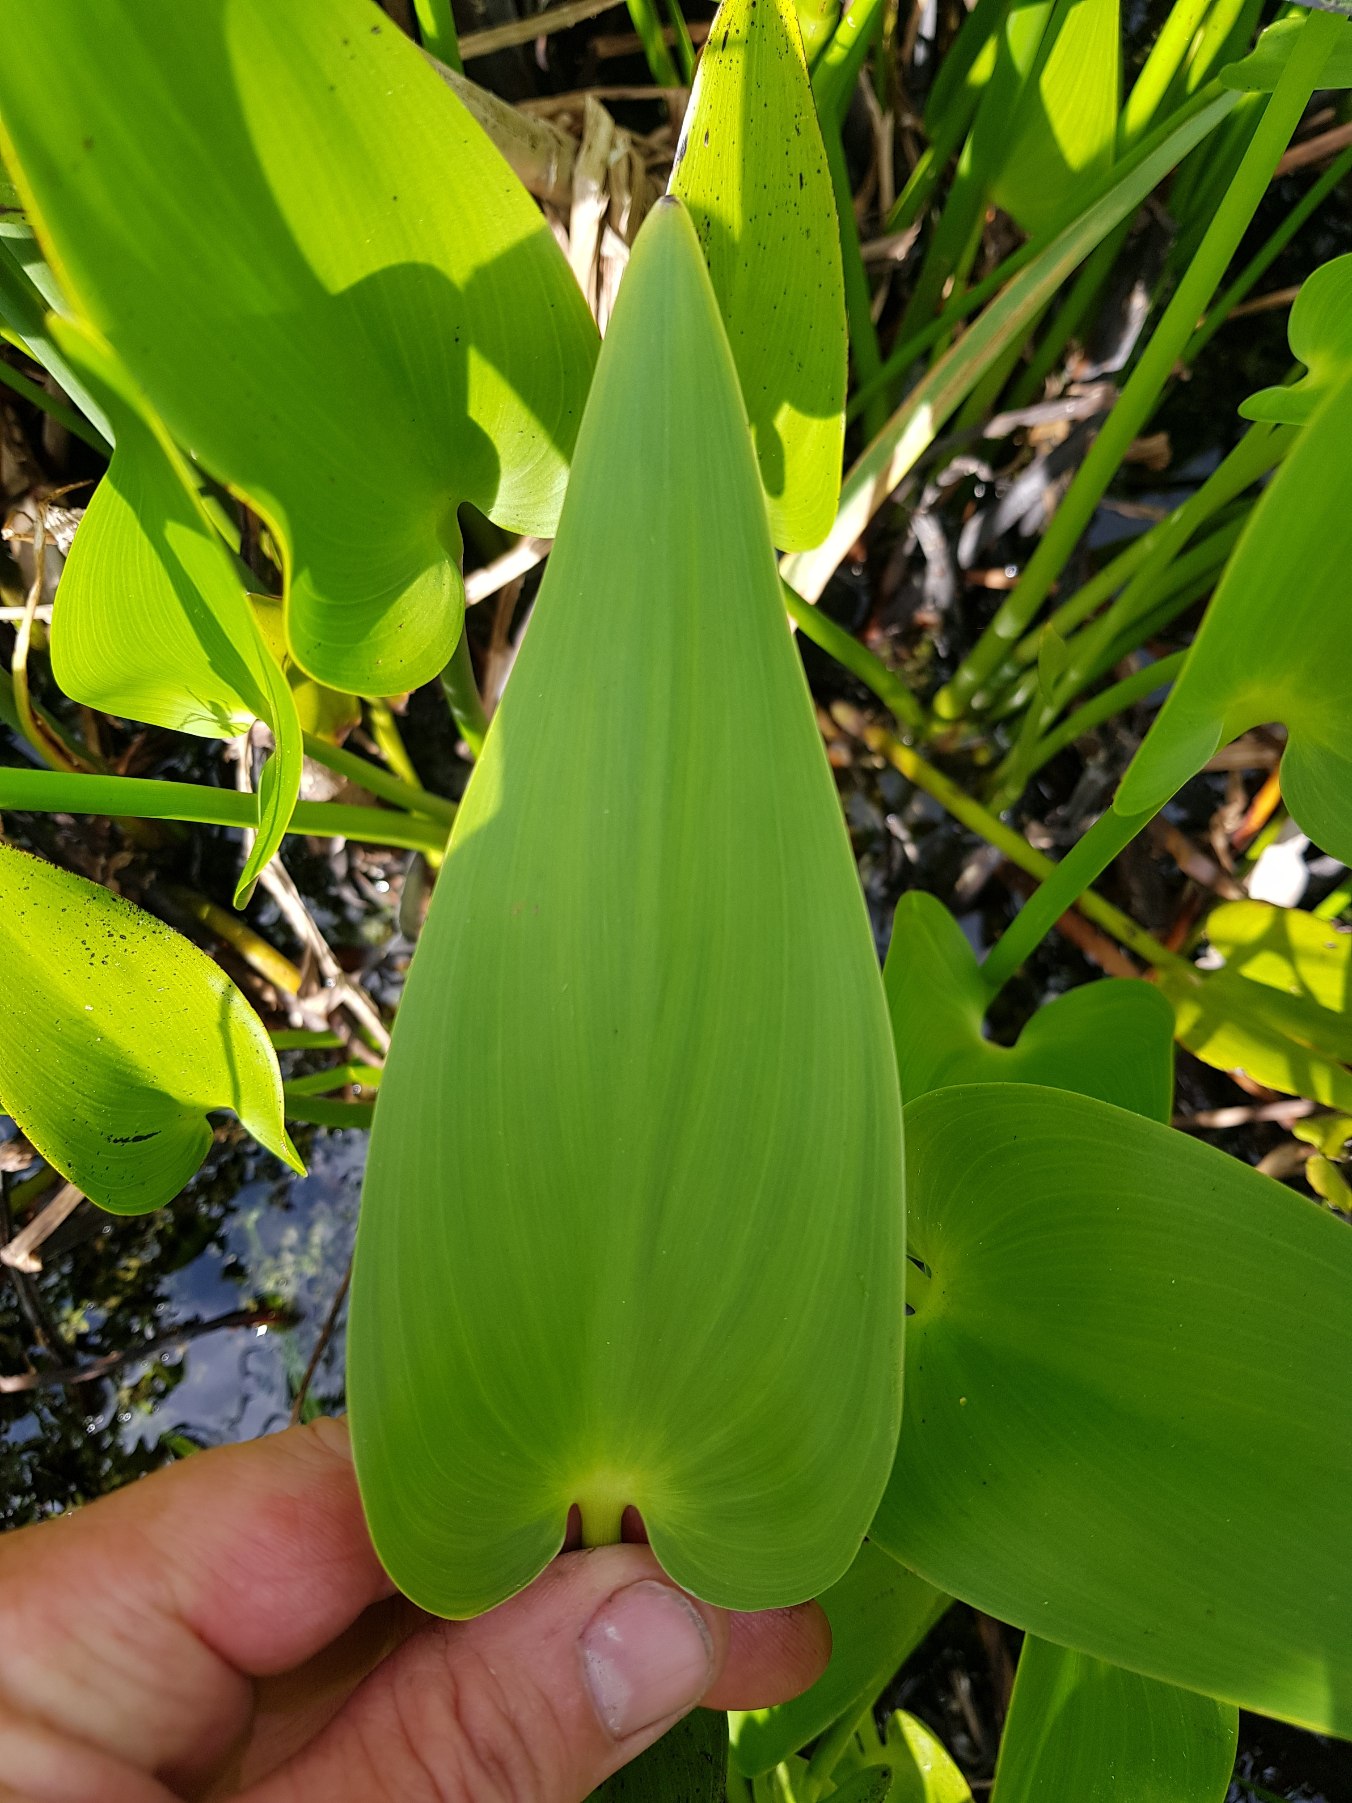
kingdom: Plantae
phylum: Tracheophyta
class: Liliopsida
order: Commelinales
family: Pontederiaceae
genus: Pontederia
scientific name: Pontederia cordata
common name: Blå vandhyacint
